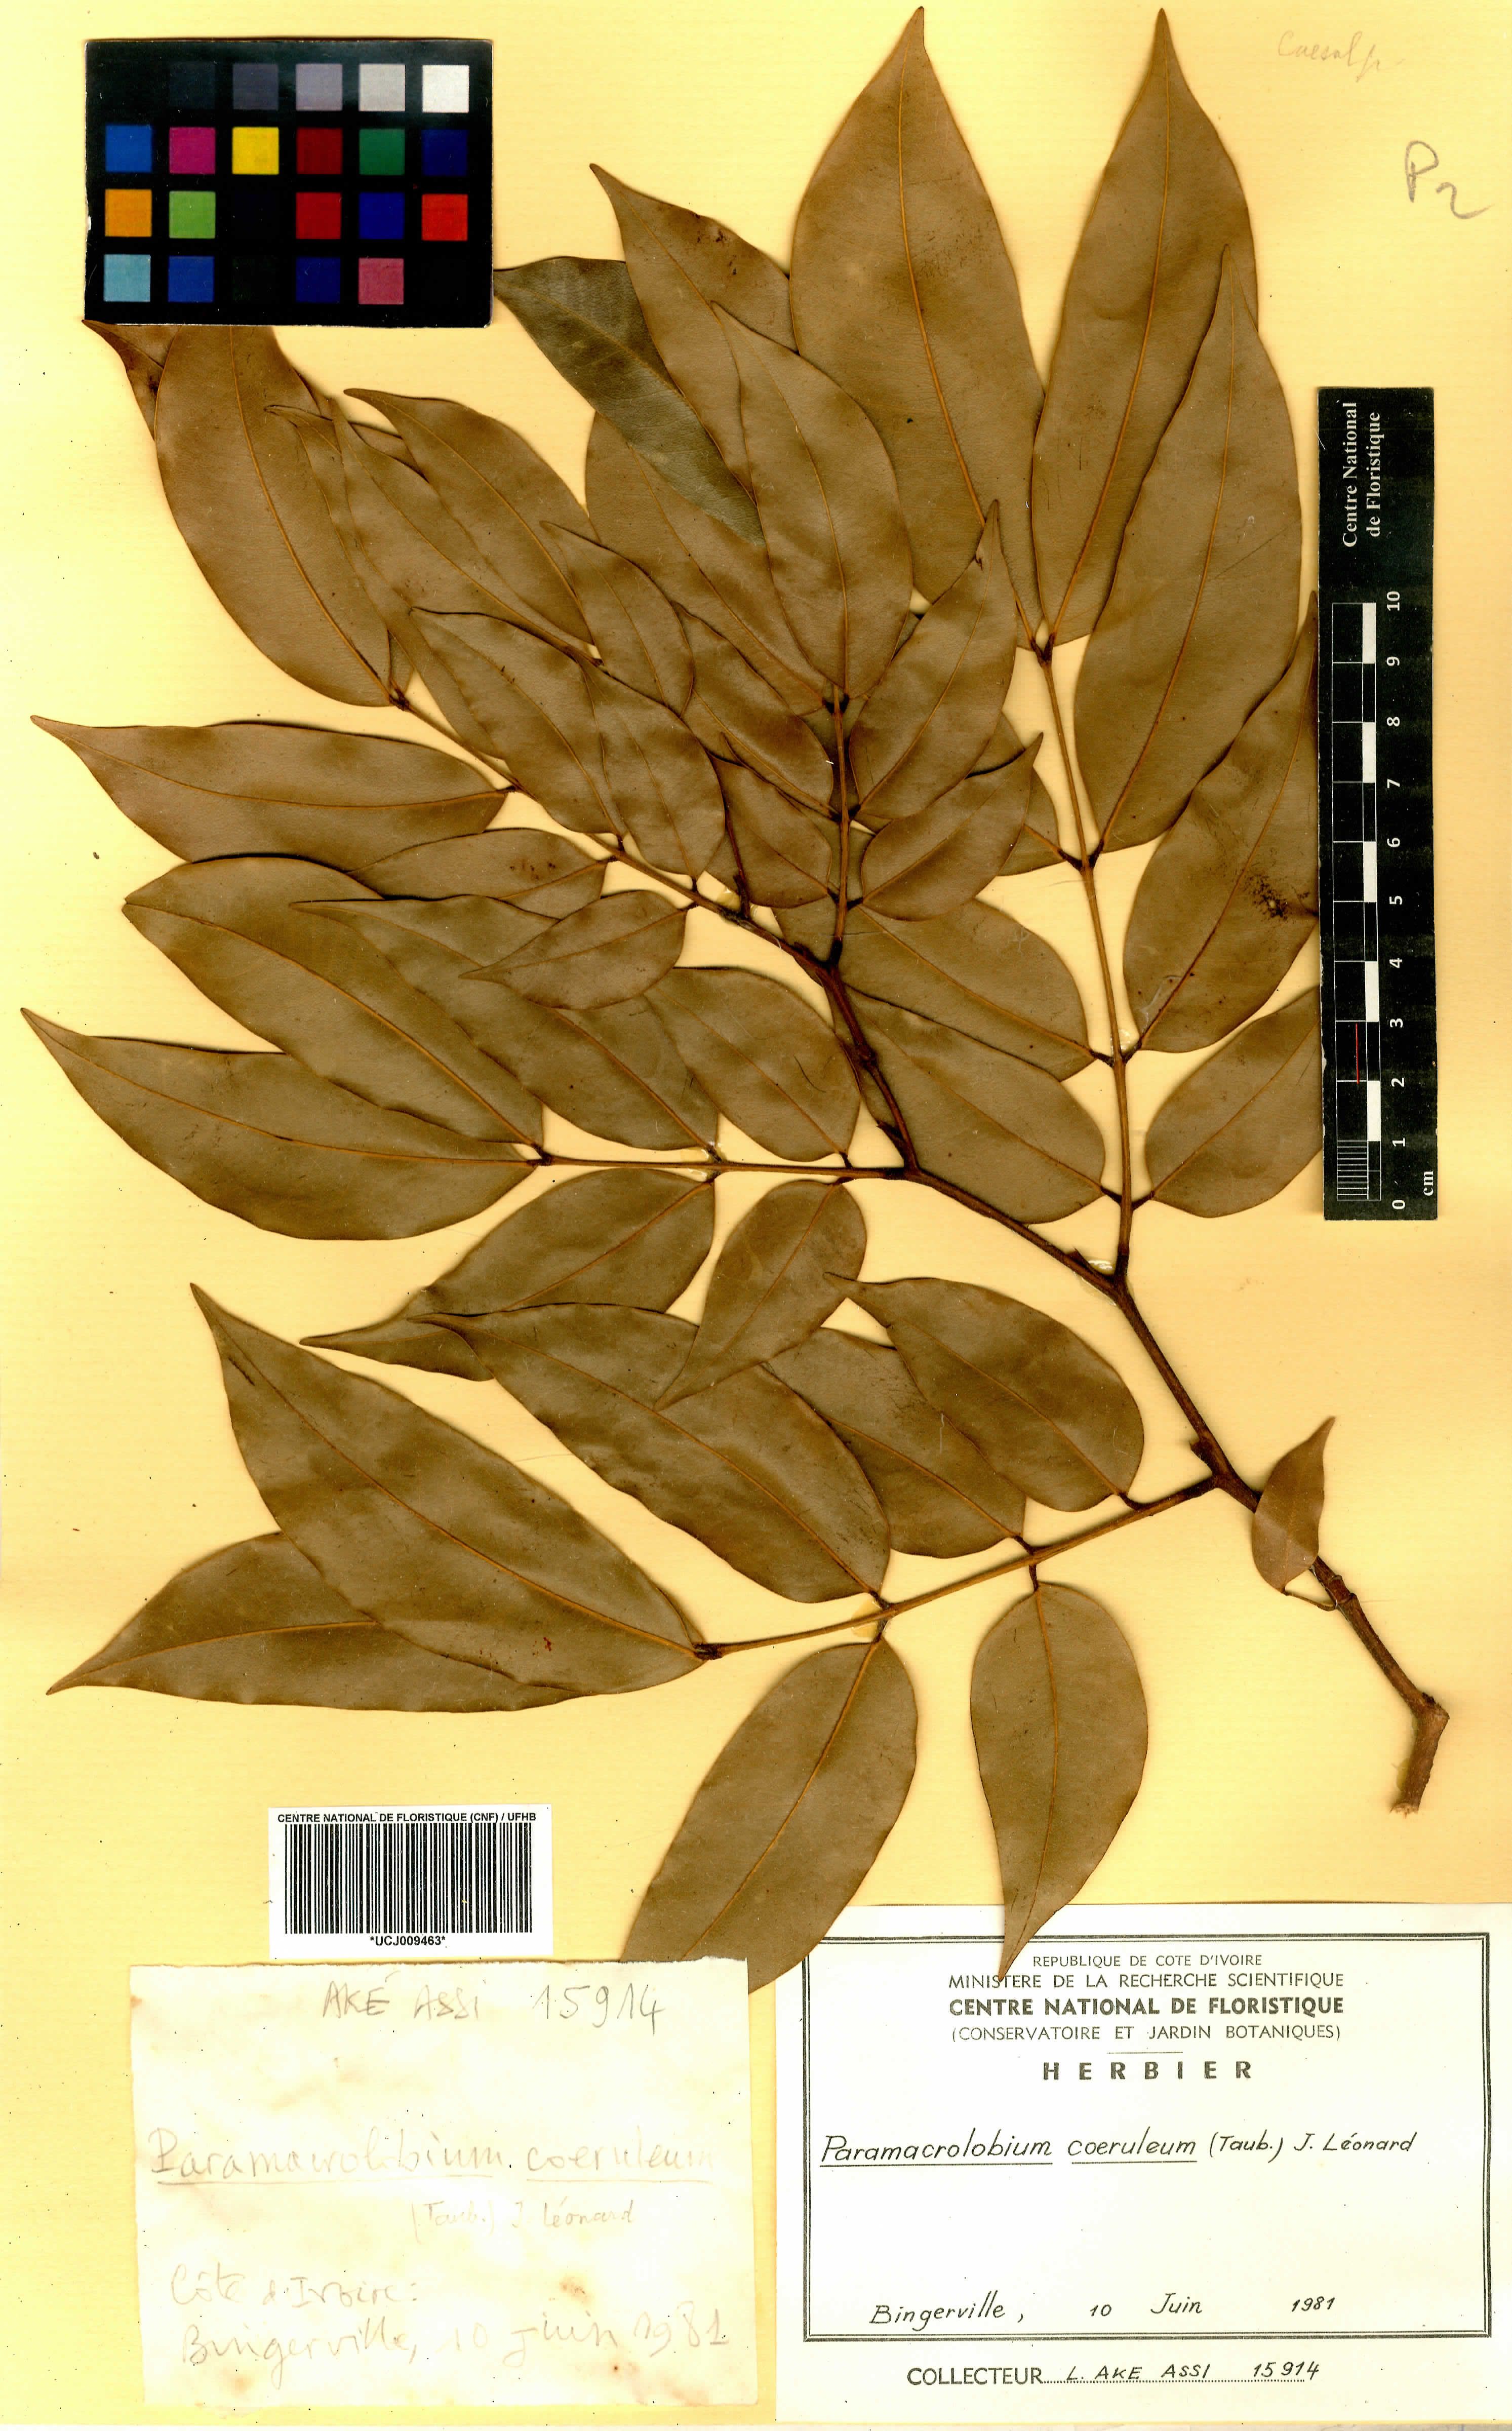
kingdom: Plantae
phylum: Tracheophyta
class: Magnoliopsida
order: Fabales
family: Fabaceae
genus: Paramacrolobium
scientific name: Paramacrolobium coeruleum
